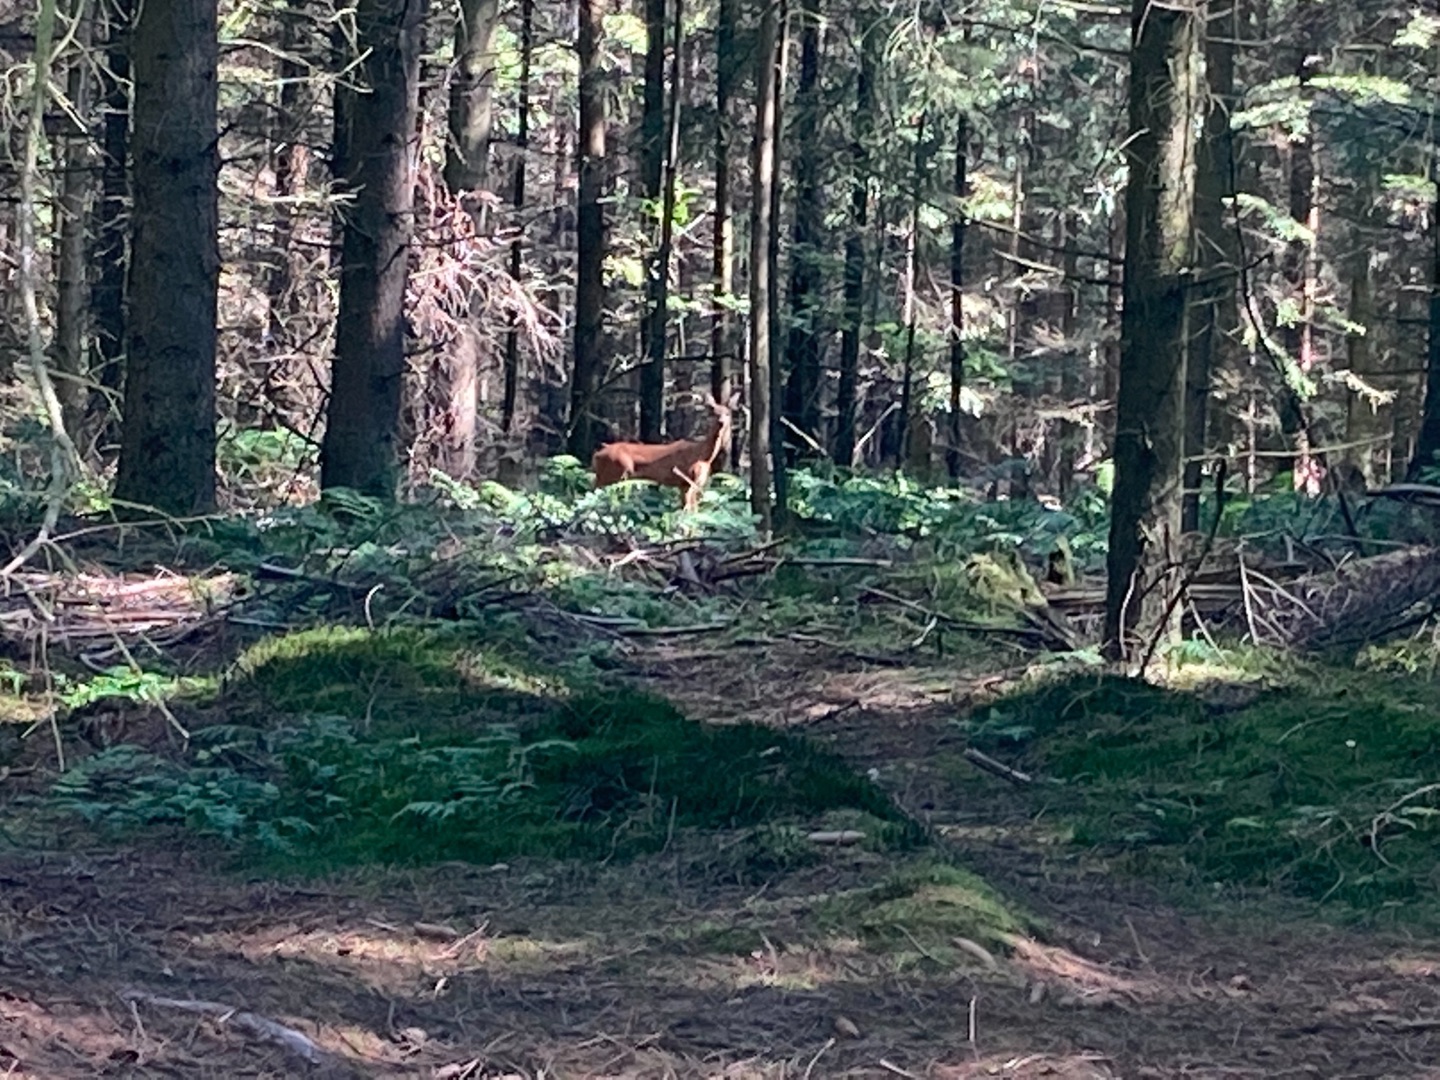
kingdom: Animalia
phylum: Chordata
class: Mammalia
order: Artiodactyla
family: Cervidae
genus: Cervus
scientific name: Cervus elaphus
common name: Krondyr
